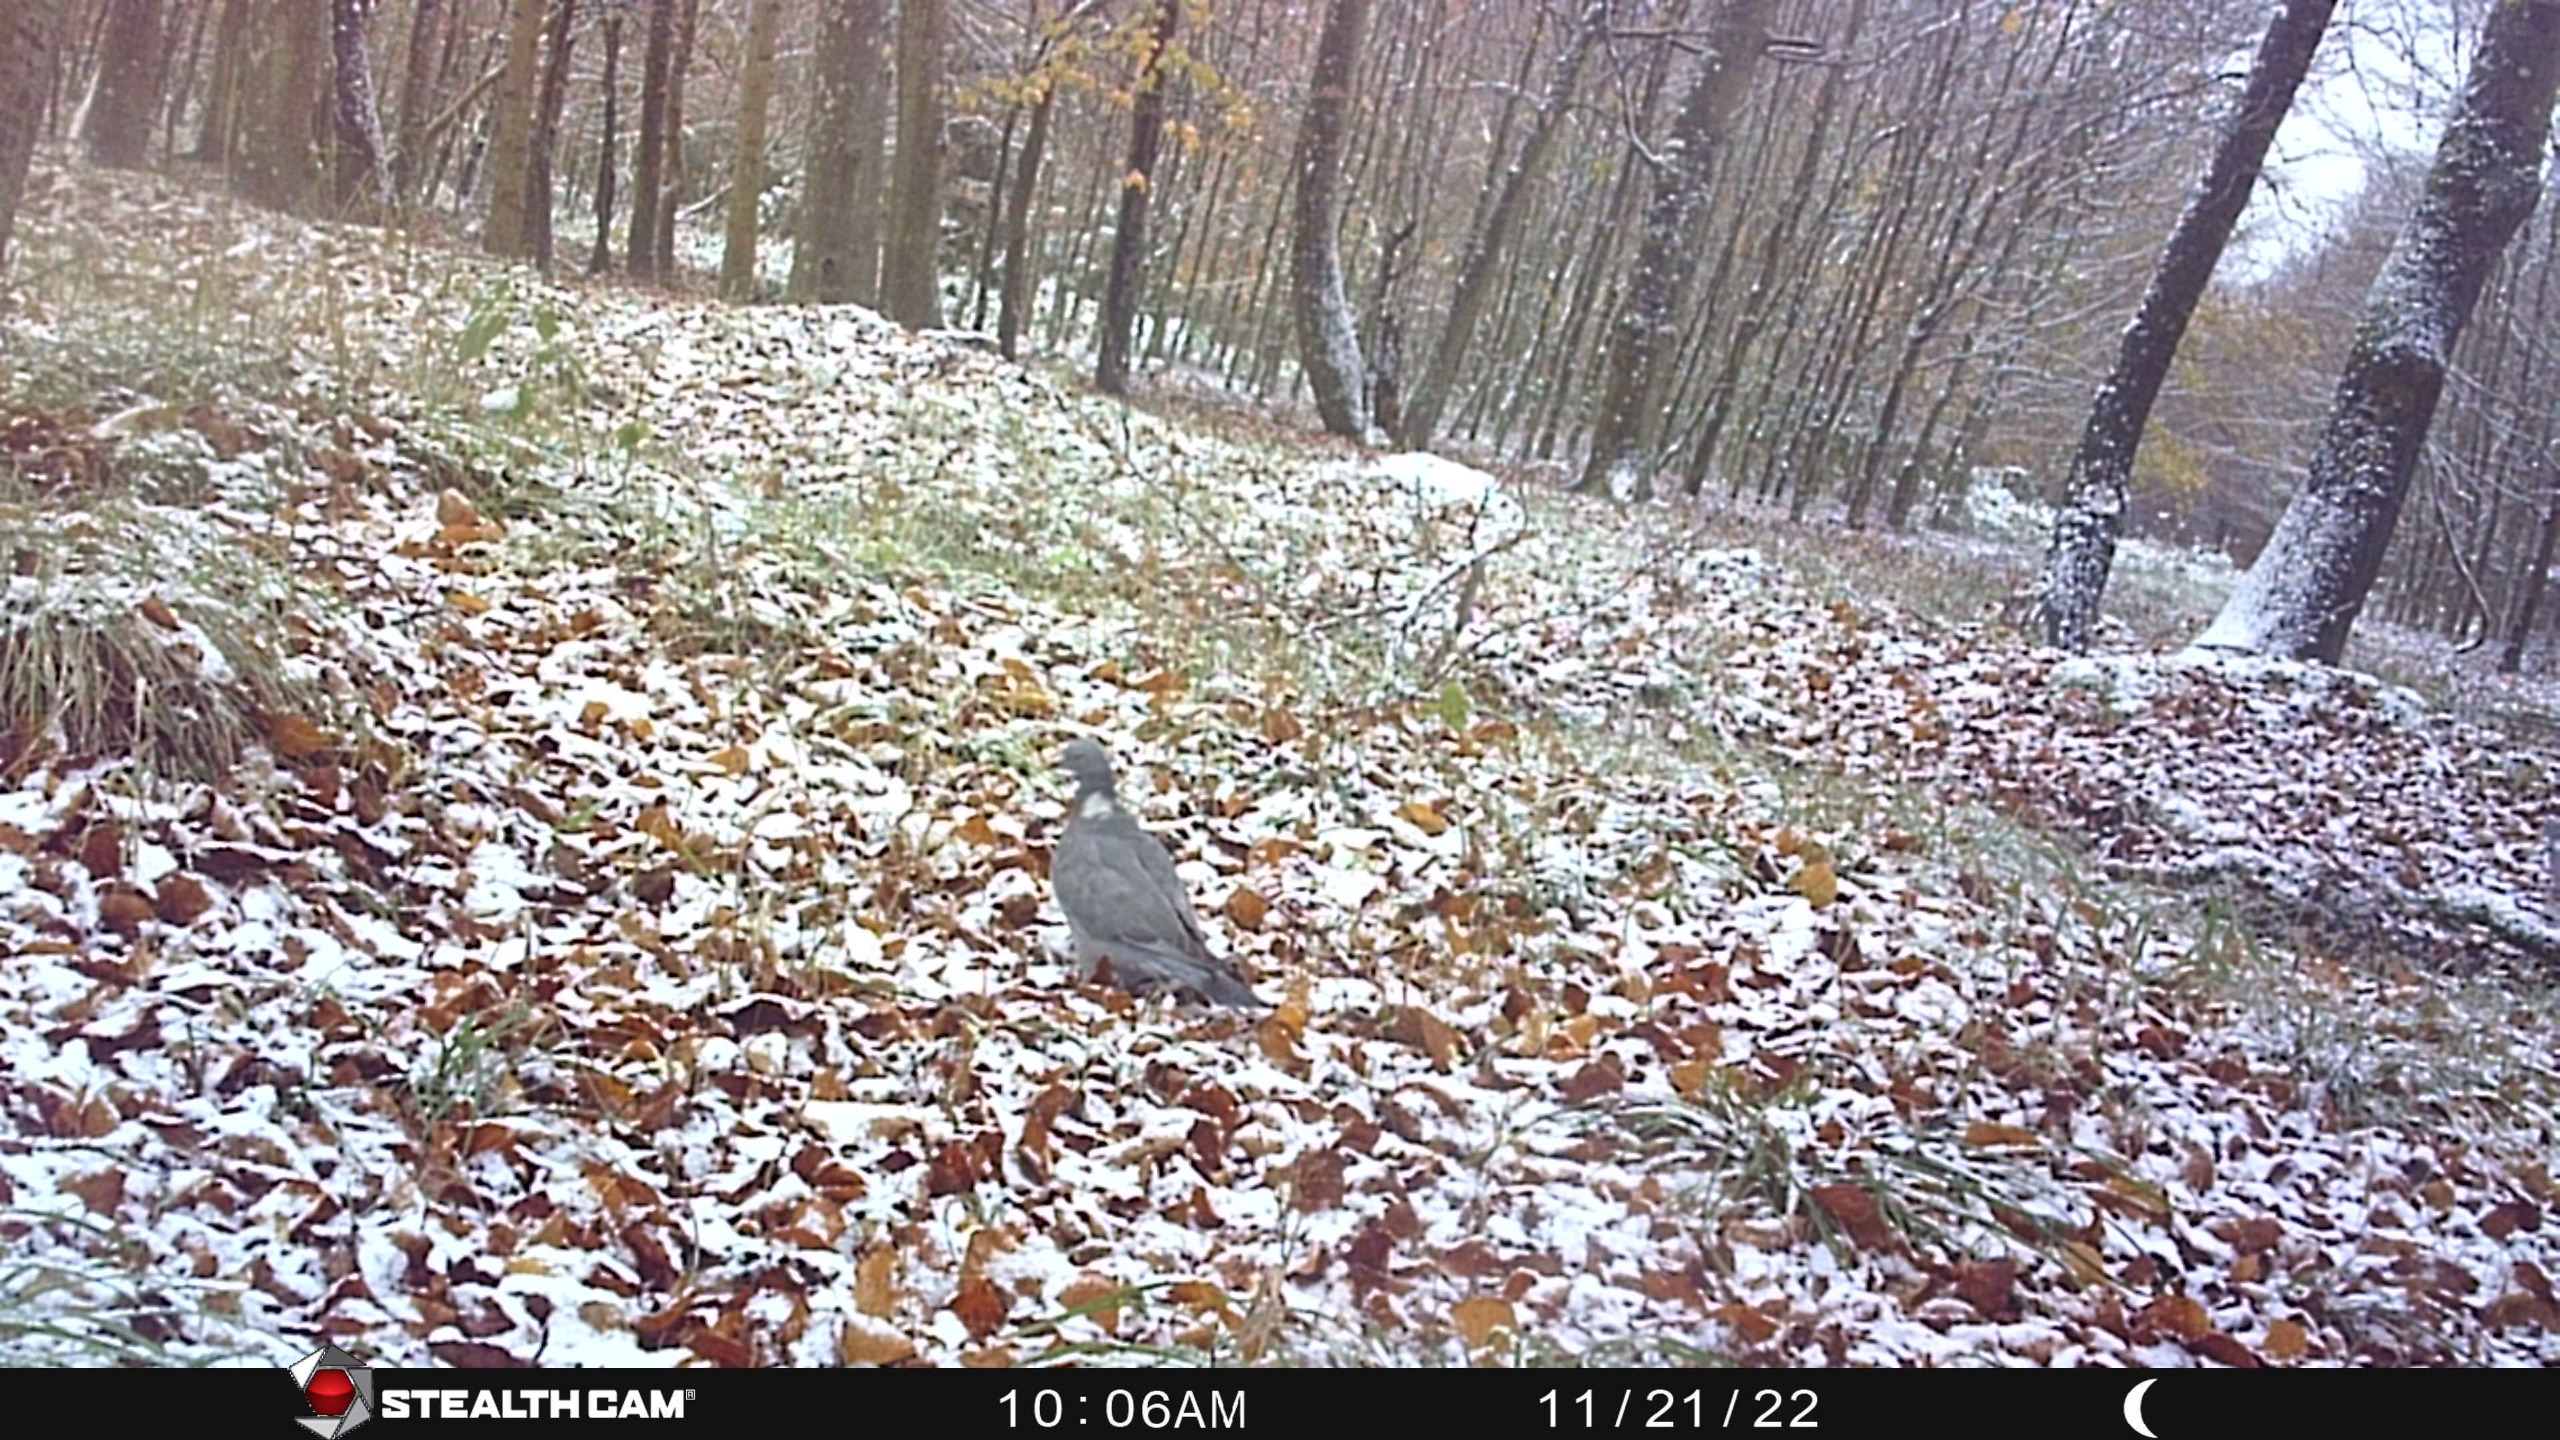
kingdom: Animalia
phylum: Chordata
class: Aves
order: Columbiformes
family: Columbidae
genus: Columba
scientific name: Columba palumbus
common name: Ringdue
